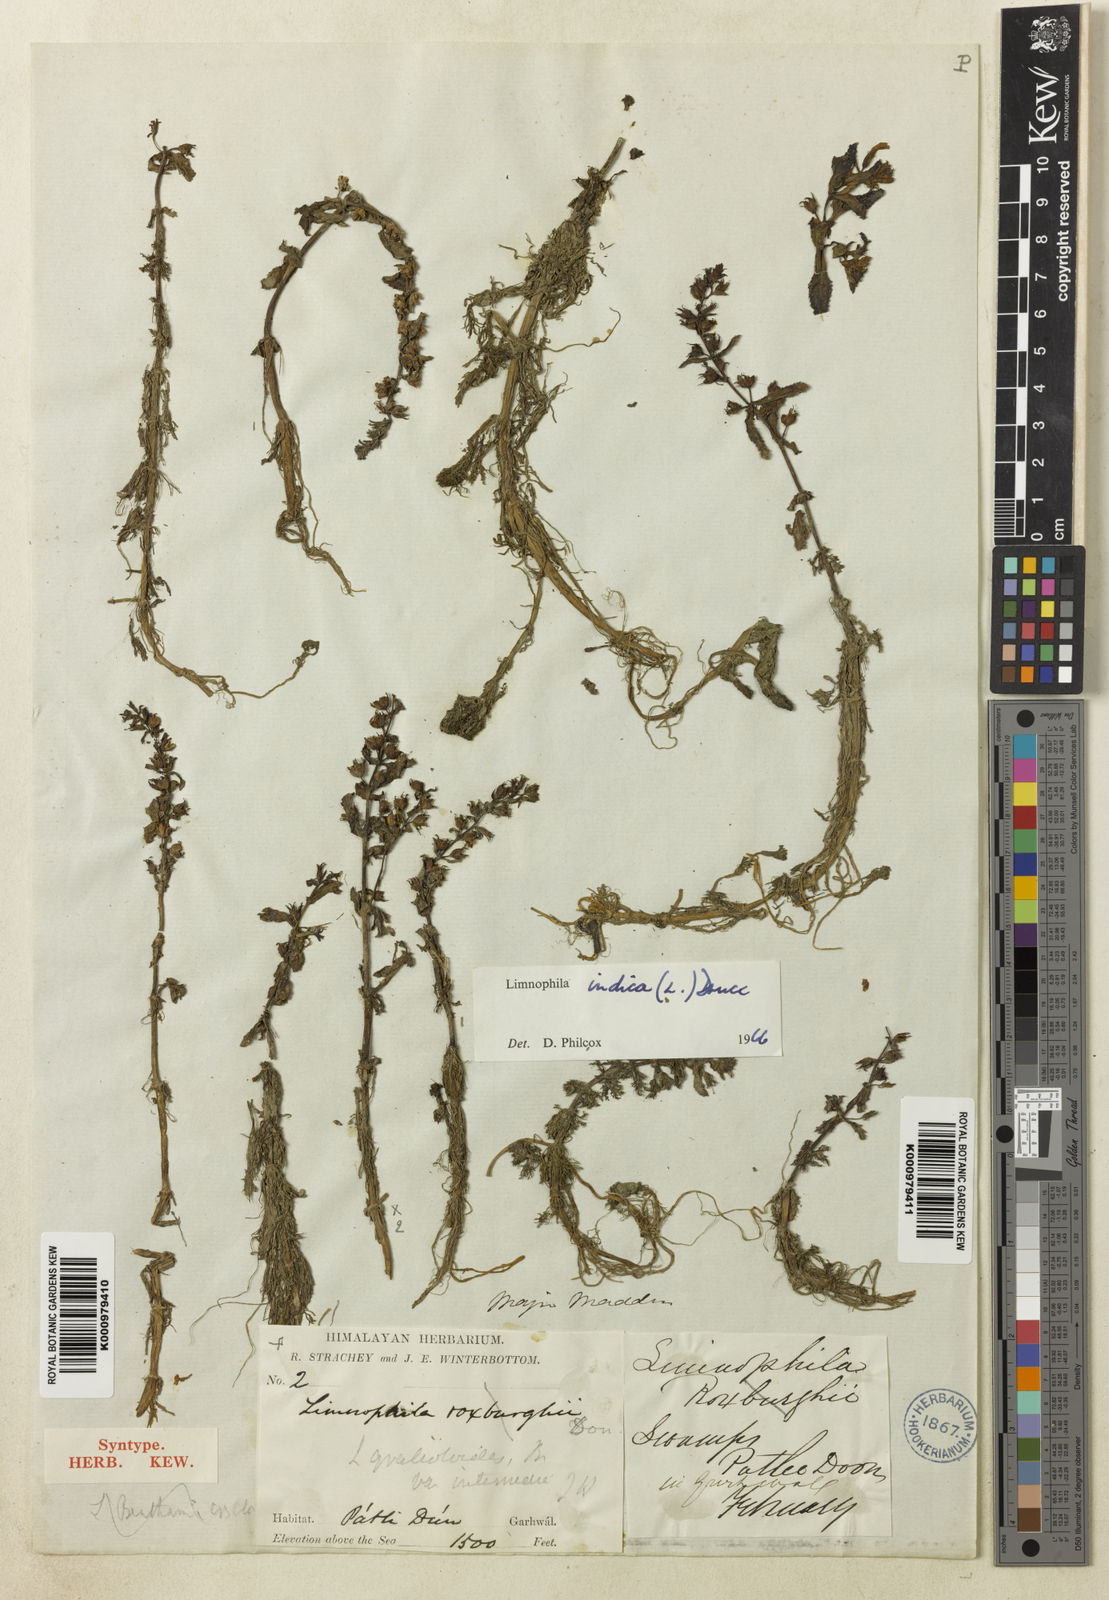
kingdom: Plantae
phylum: Tracheophyta
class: Magnoliopsida
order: Lamiales
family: Plantaginaceae
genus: Limnophila
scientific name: Limnophila indica
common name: Indian marshweed
